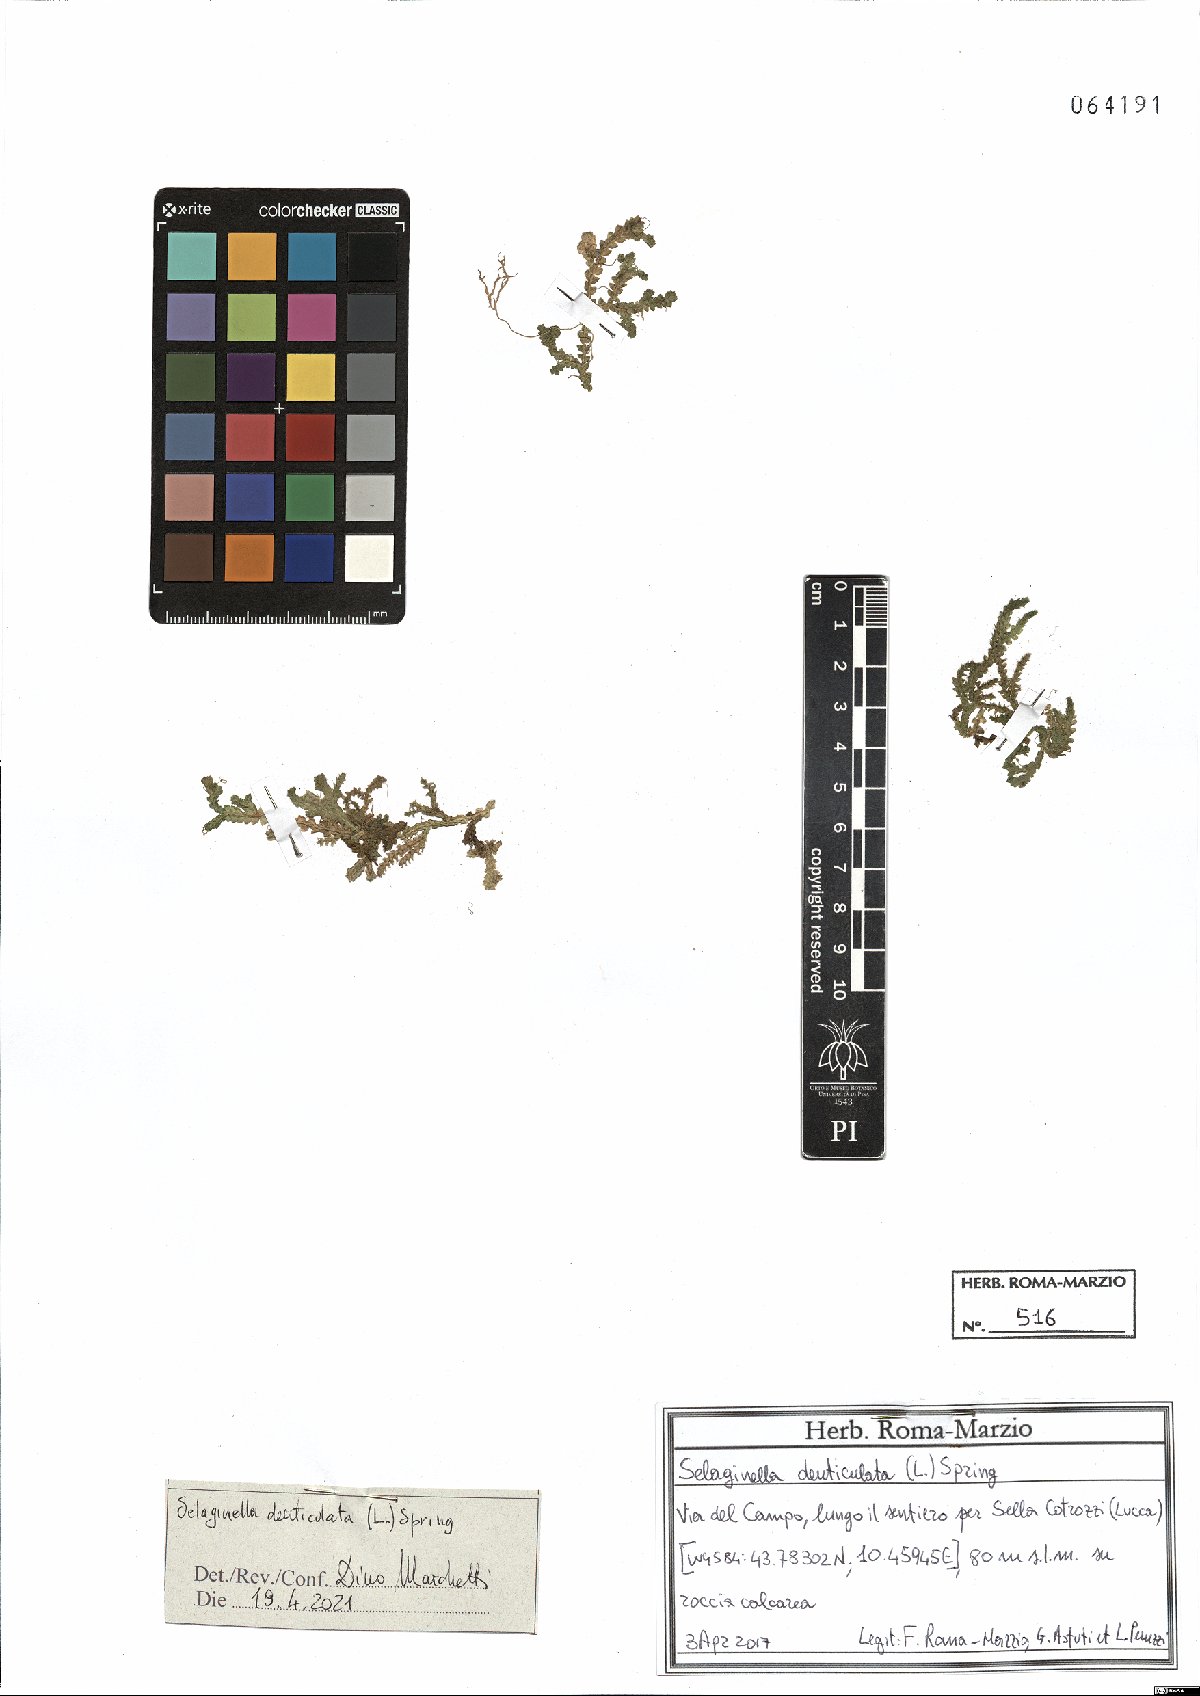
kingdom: Plantae
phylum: Tracheophyta
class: Lycopodiopsida
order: Selaginellales
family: Selaginellaceae
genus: Selaginella
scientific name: Selaginella denticulata
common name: Toothed-leaved clubmoss
